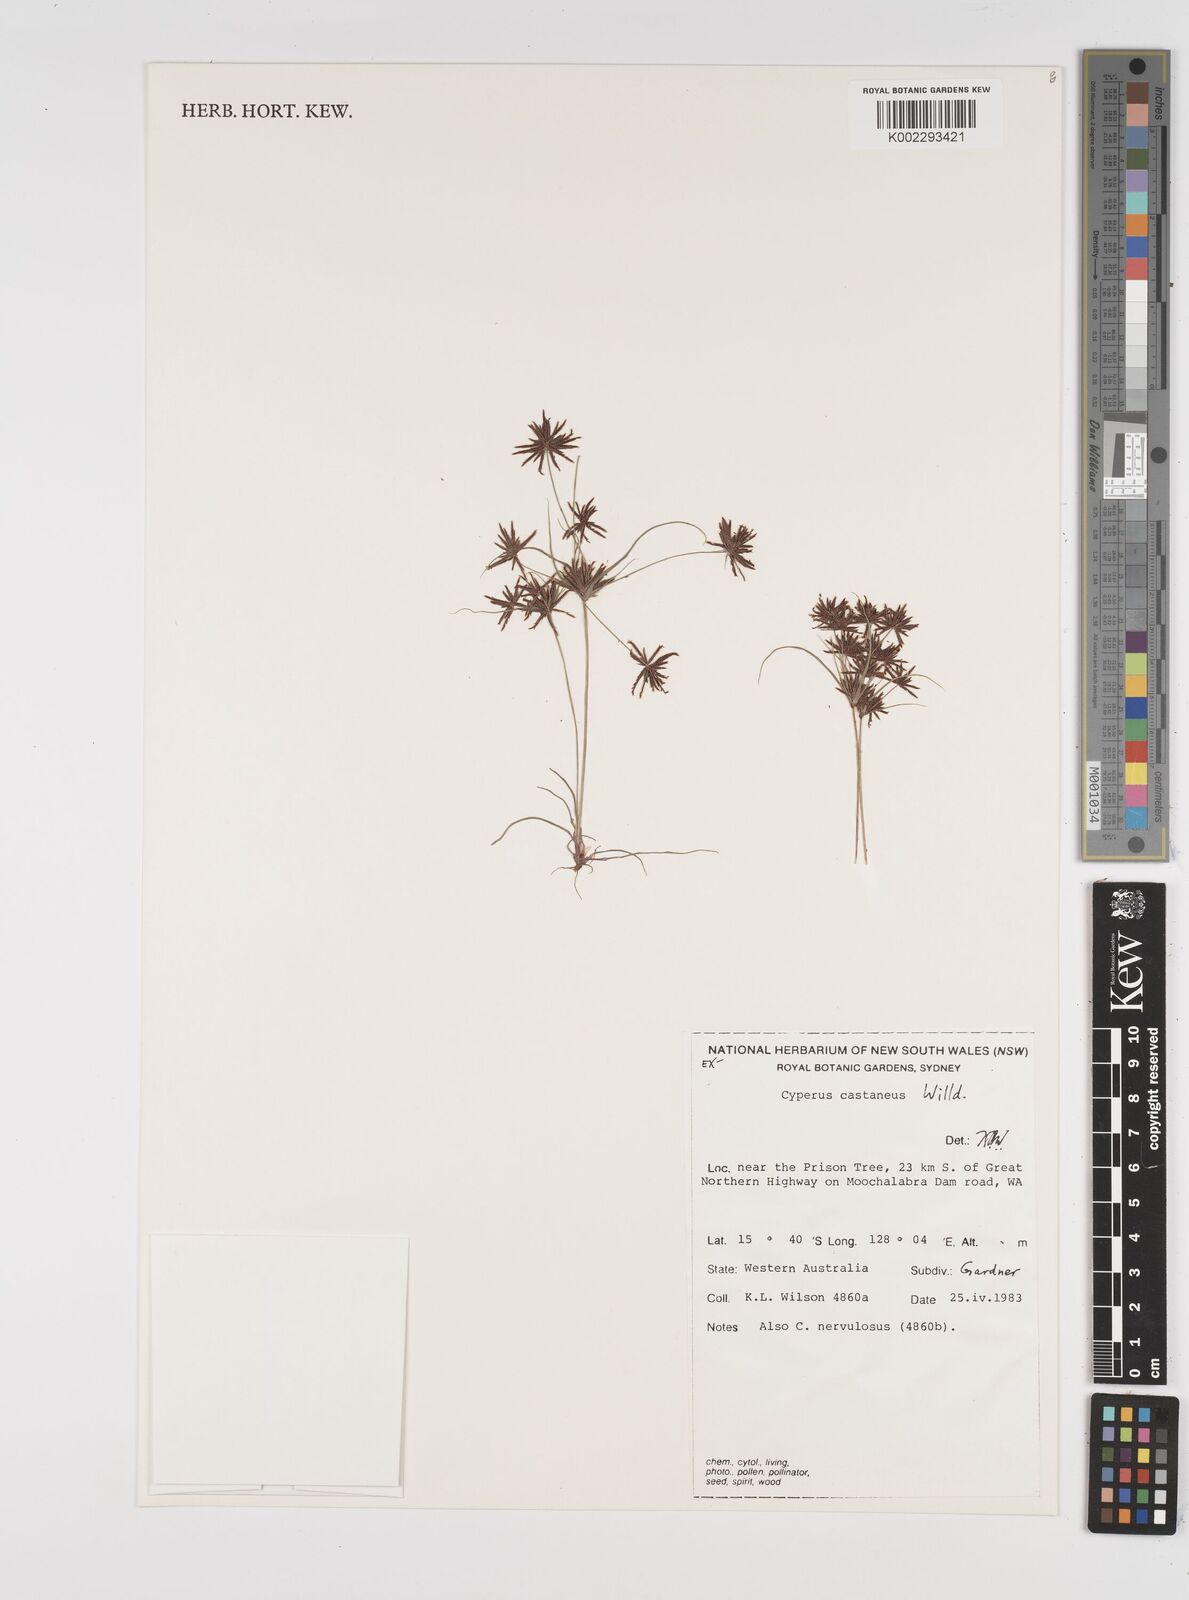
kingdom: Plantae
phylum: Tracheophyta
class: Liliopsida
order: Poales
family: Cyperaceae
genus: Cyperus
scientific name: Cyperus castaneus
